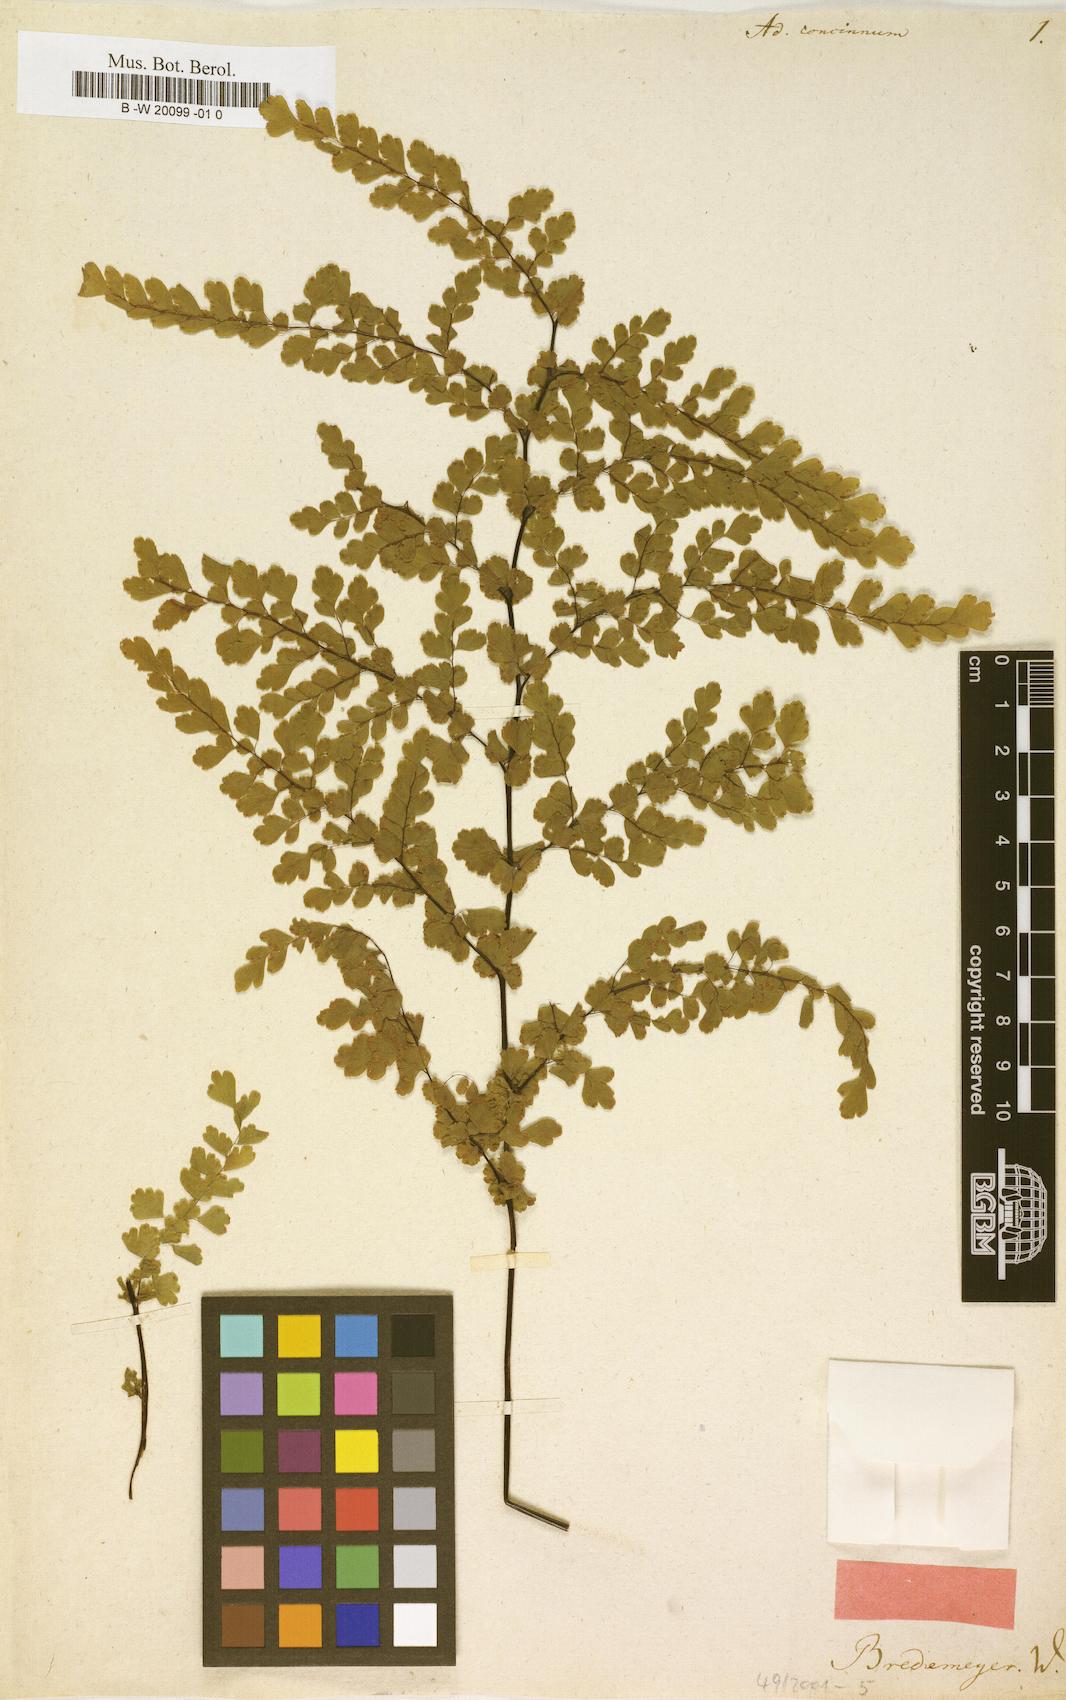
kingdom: Plantae
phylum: Tracheophyta
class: Polypodiopsida
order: Polypodiales
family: Pteridaceae
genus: Adiantum
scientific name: Adiantum concinnum
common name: Brittle maidenhair fern
